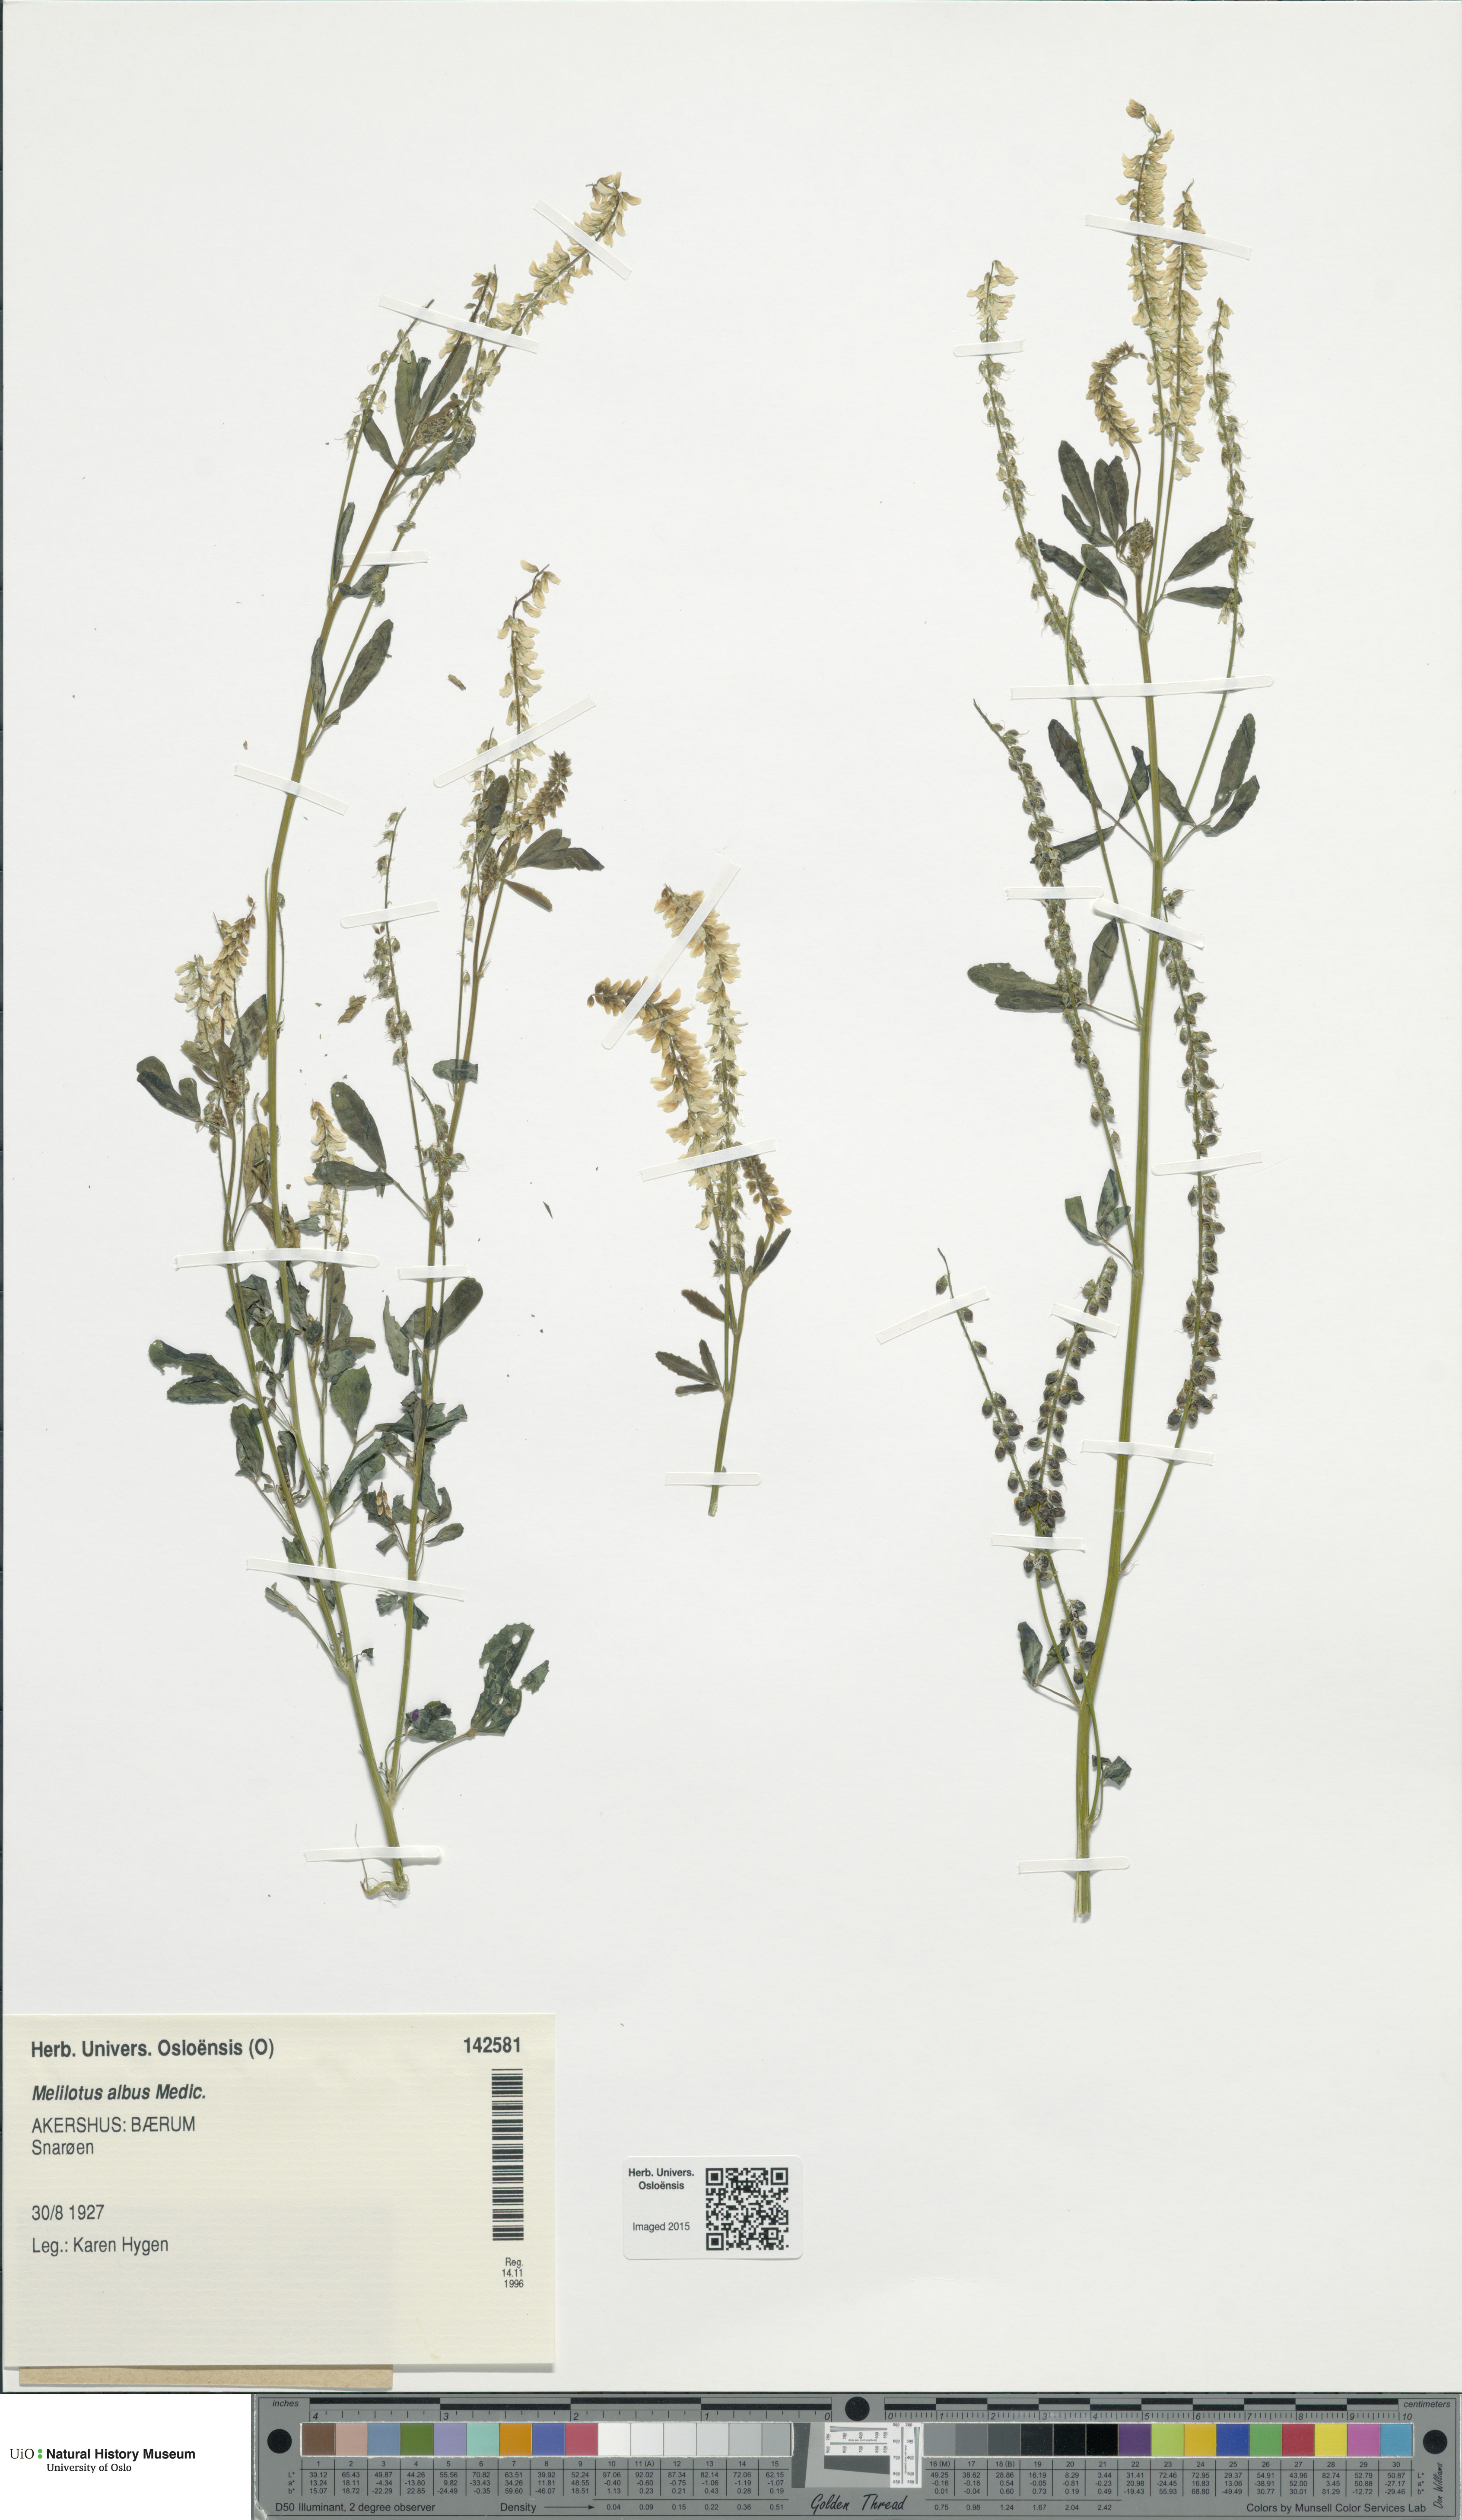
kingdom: Plantae
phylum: Tracheophyta
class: Magnoliopsida
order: Fabales
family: Fabaceae
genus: Melilotus
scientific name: Melilotus albus
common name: White melilot
